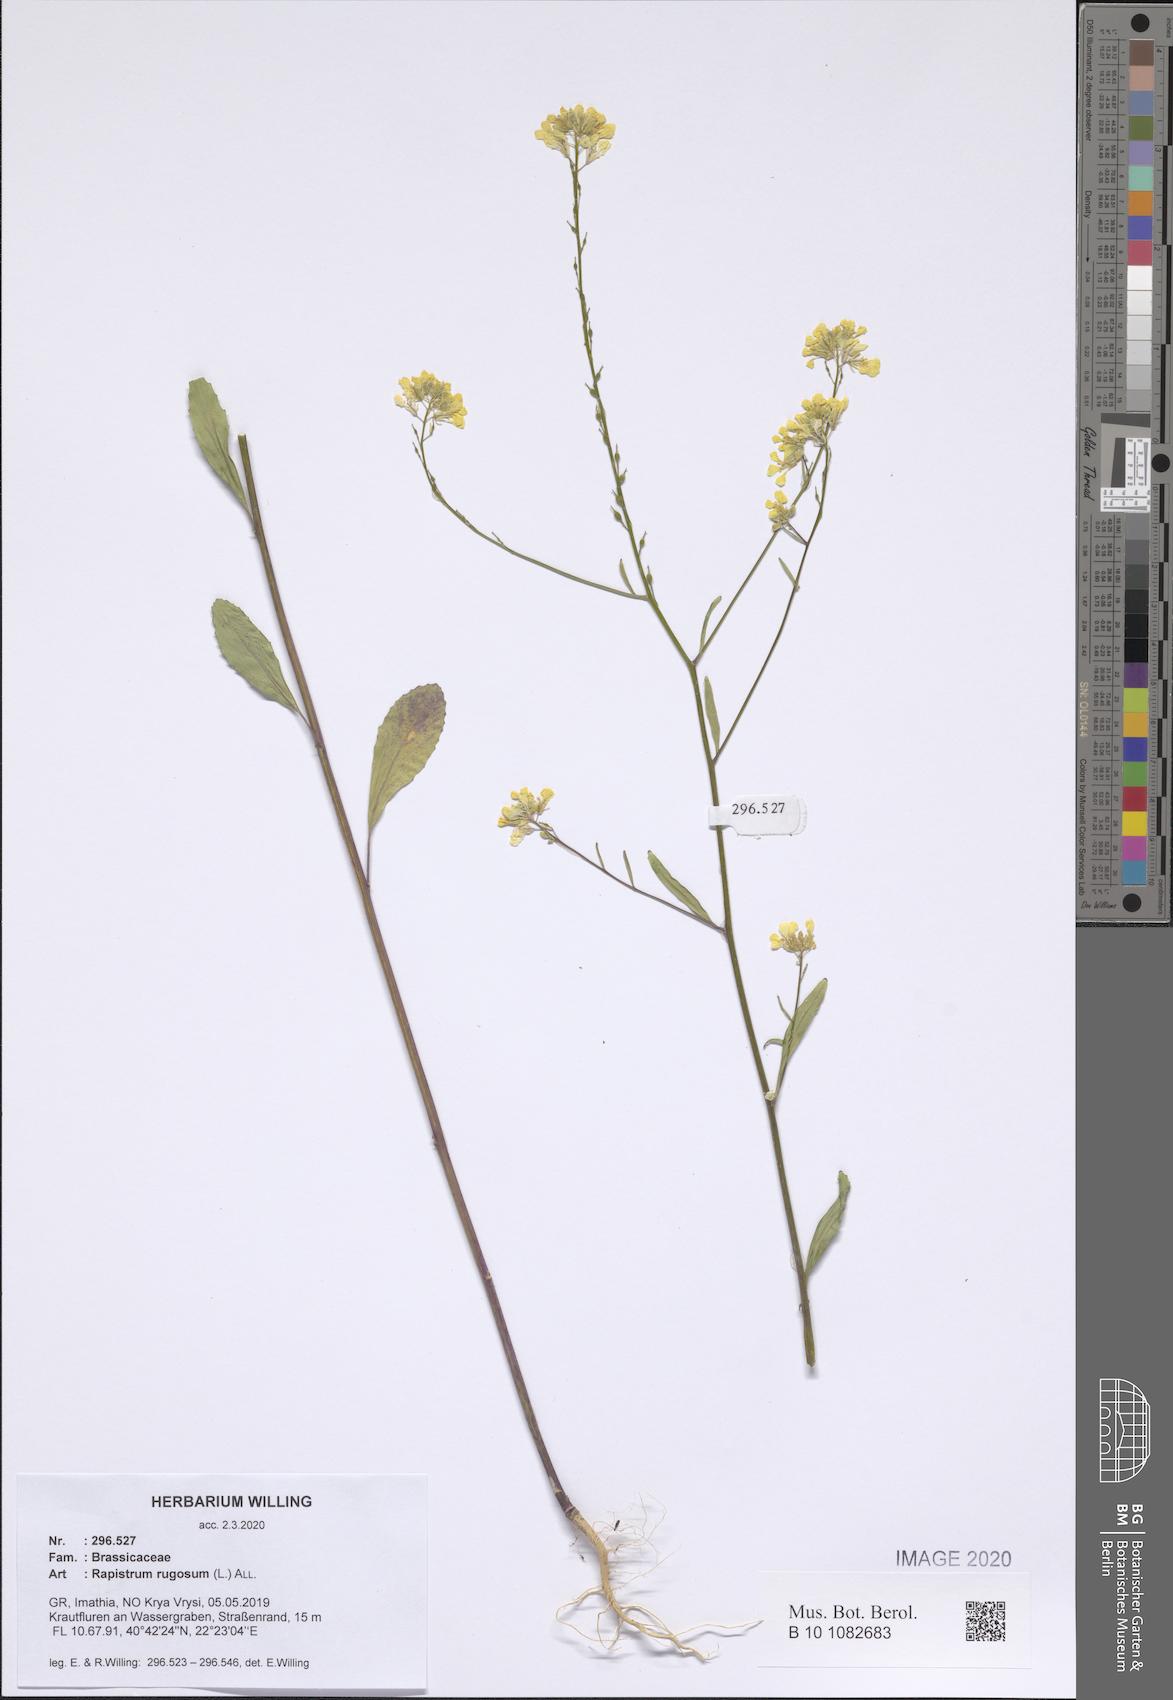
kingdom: Plantae
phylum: Tracheophyta
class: Magnoliopsida
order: Brassicales
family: Brassicaceae
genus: Rapistrum
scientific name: Rapistrum rugosum
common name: Annual bastardcabbage
